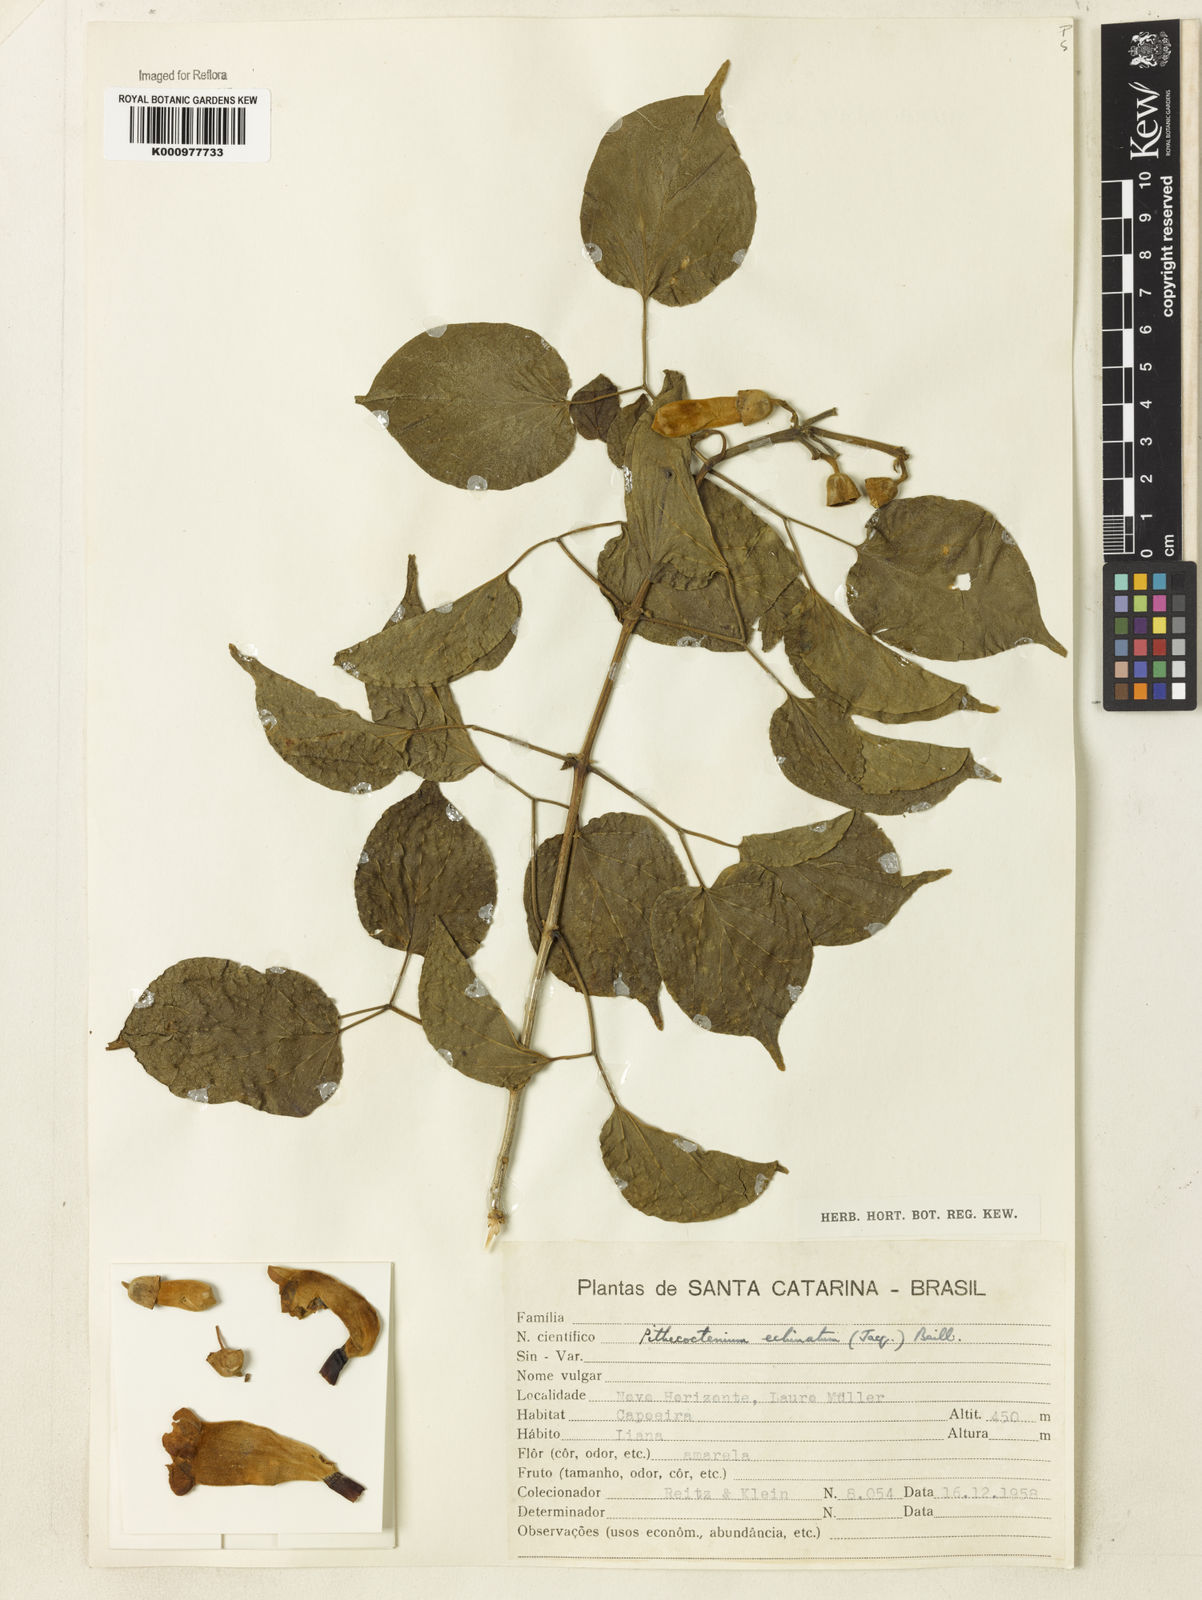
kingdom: Plantae
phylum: Tracheophyta
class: Magnoliopsida
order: Lamiales
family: Bignoniaceae
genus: Amphilophium
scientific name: Amphilophium crucigerum
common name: Monkey comb
